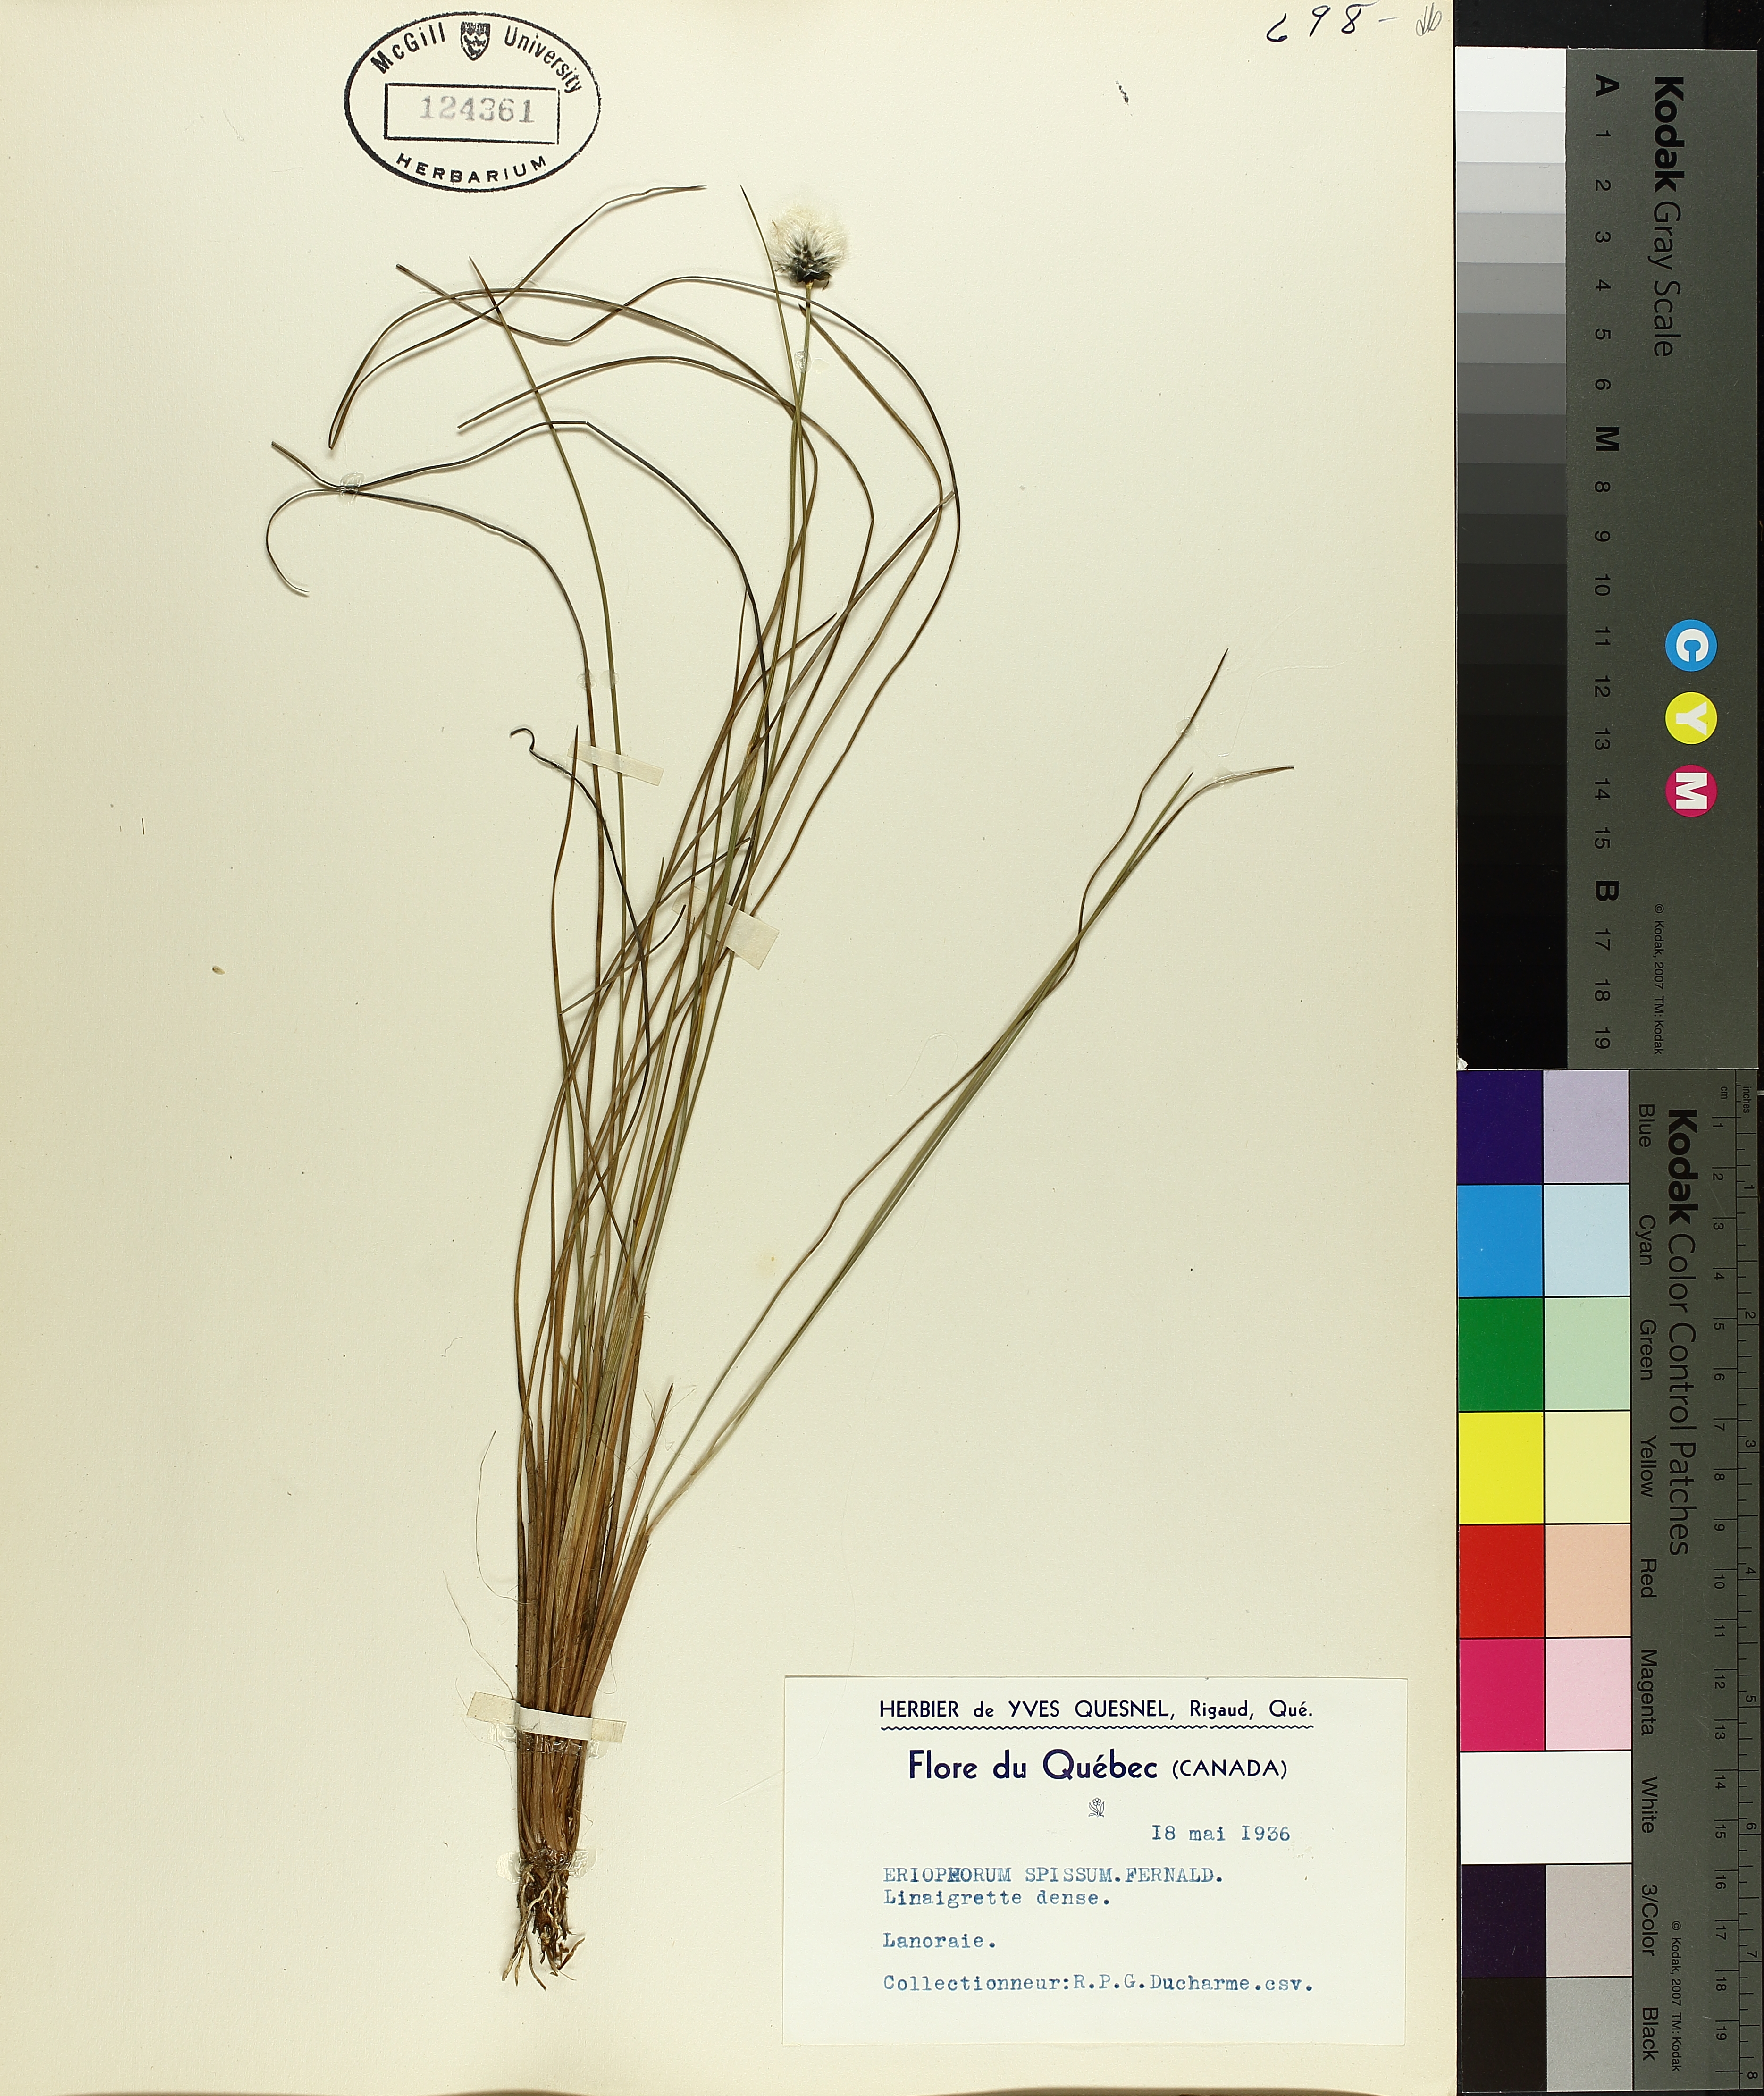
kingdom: Plantae
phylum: Tracheophyta
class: Liliopsida
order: Poales
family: Cyperaceae
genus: Eriophorum
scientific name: Eriophorum vaginatum
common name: Hare's-tail cottongrass
